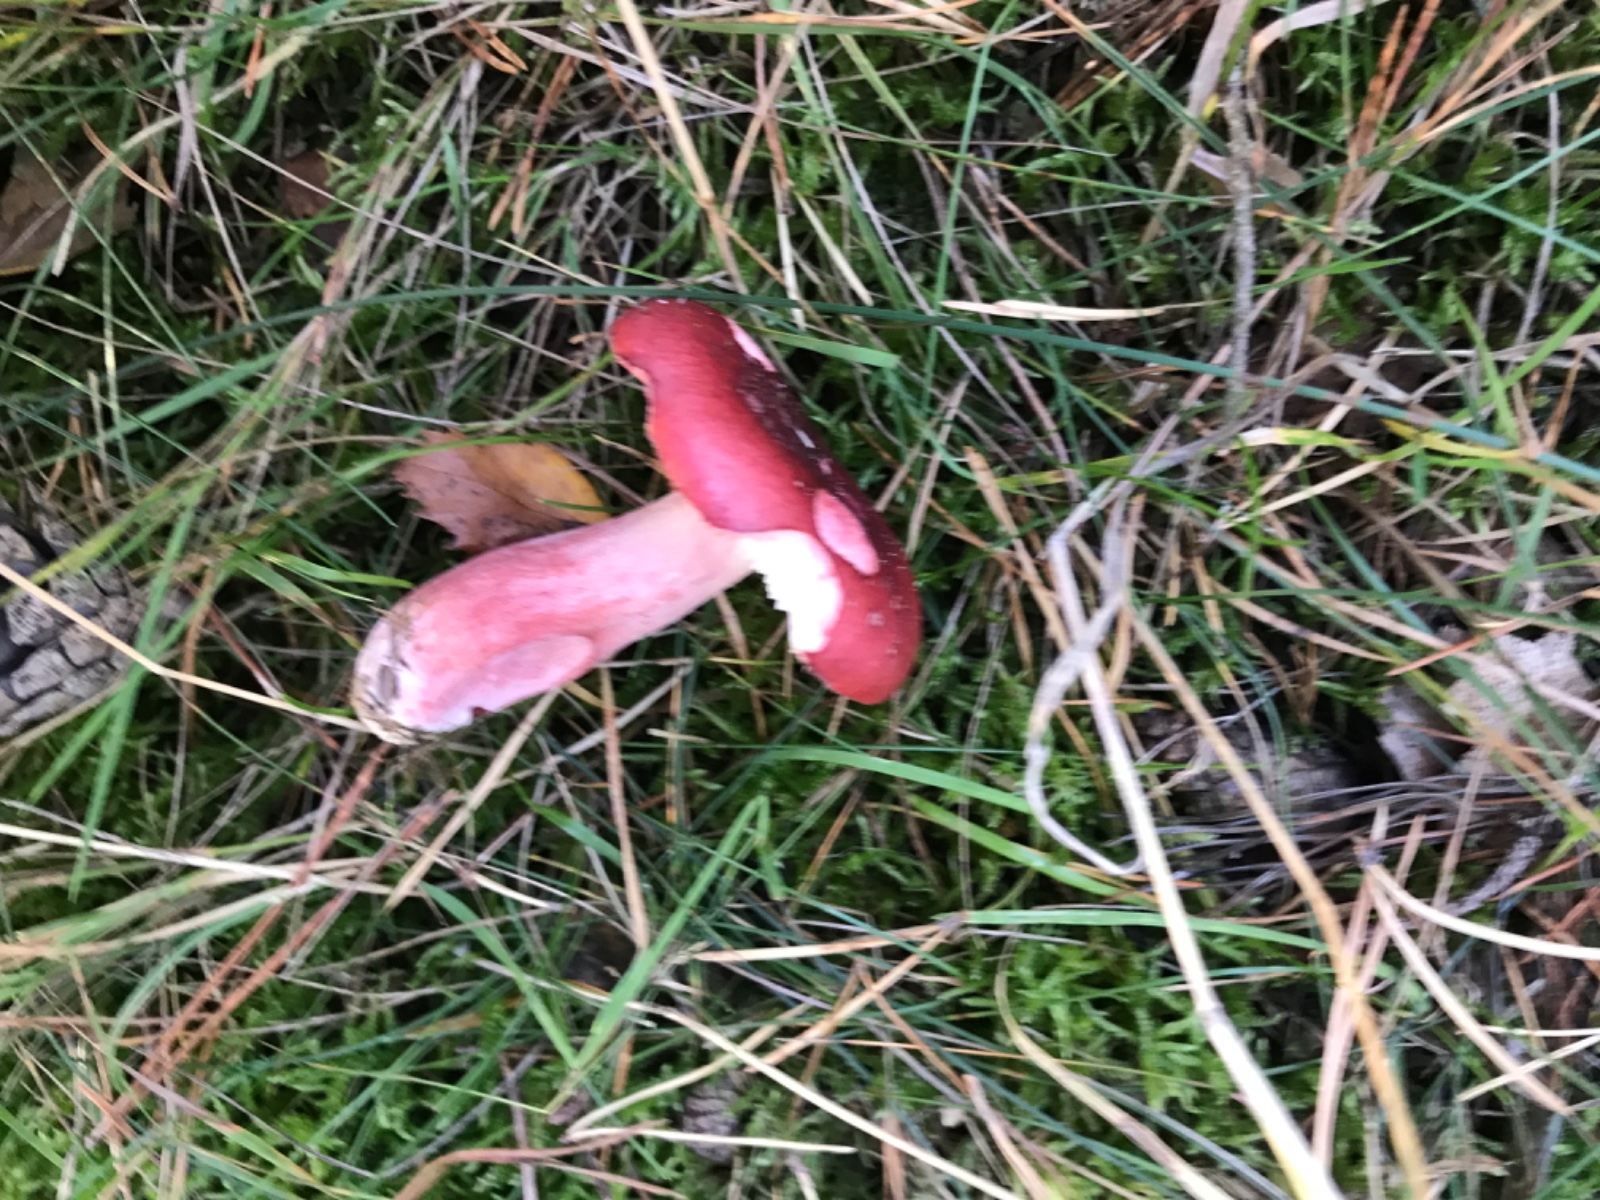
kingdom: Fungi
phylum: Basidiomycota
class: Agaricomycetes
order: Russulales
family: Russulaceae
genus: Russula
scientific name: Russula sanguinea
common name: blodrød skørhat
